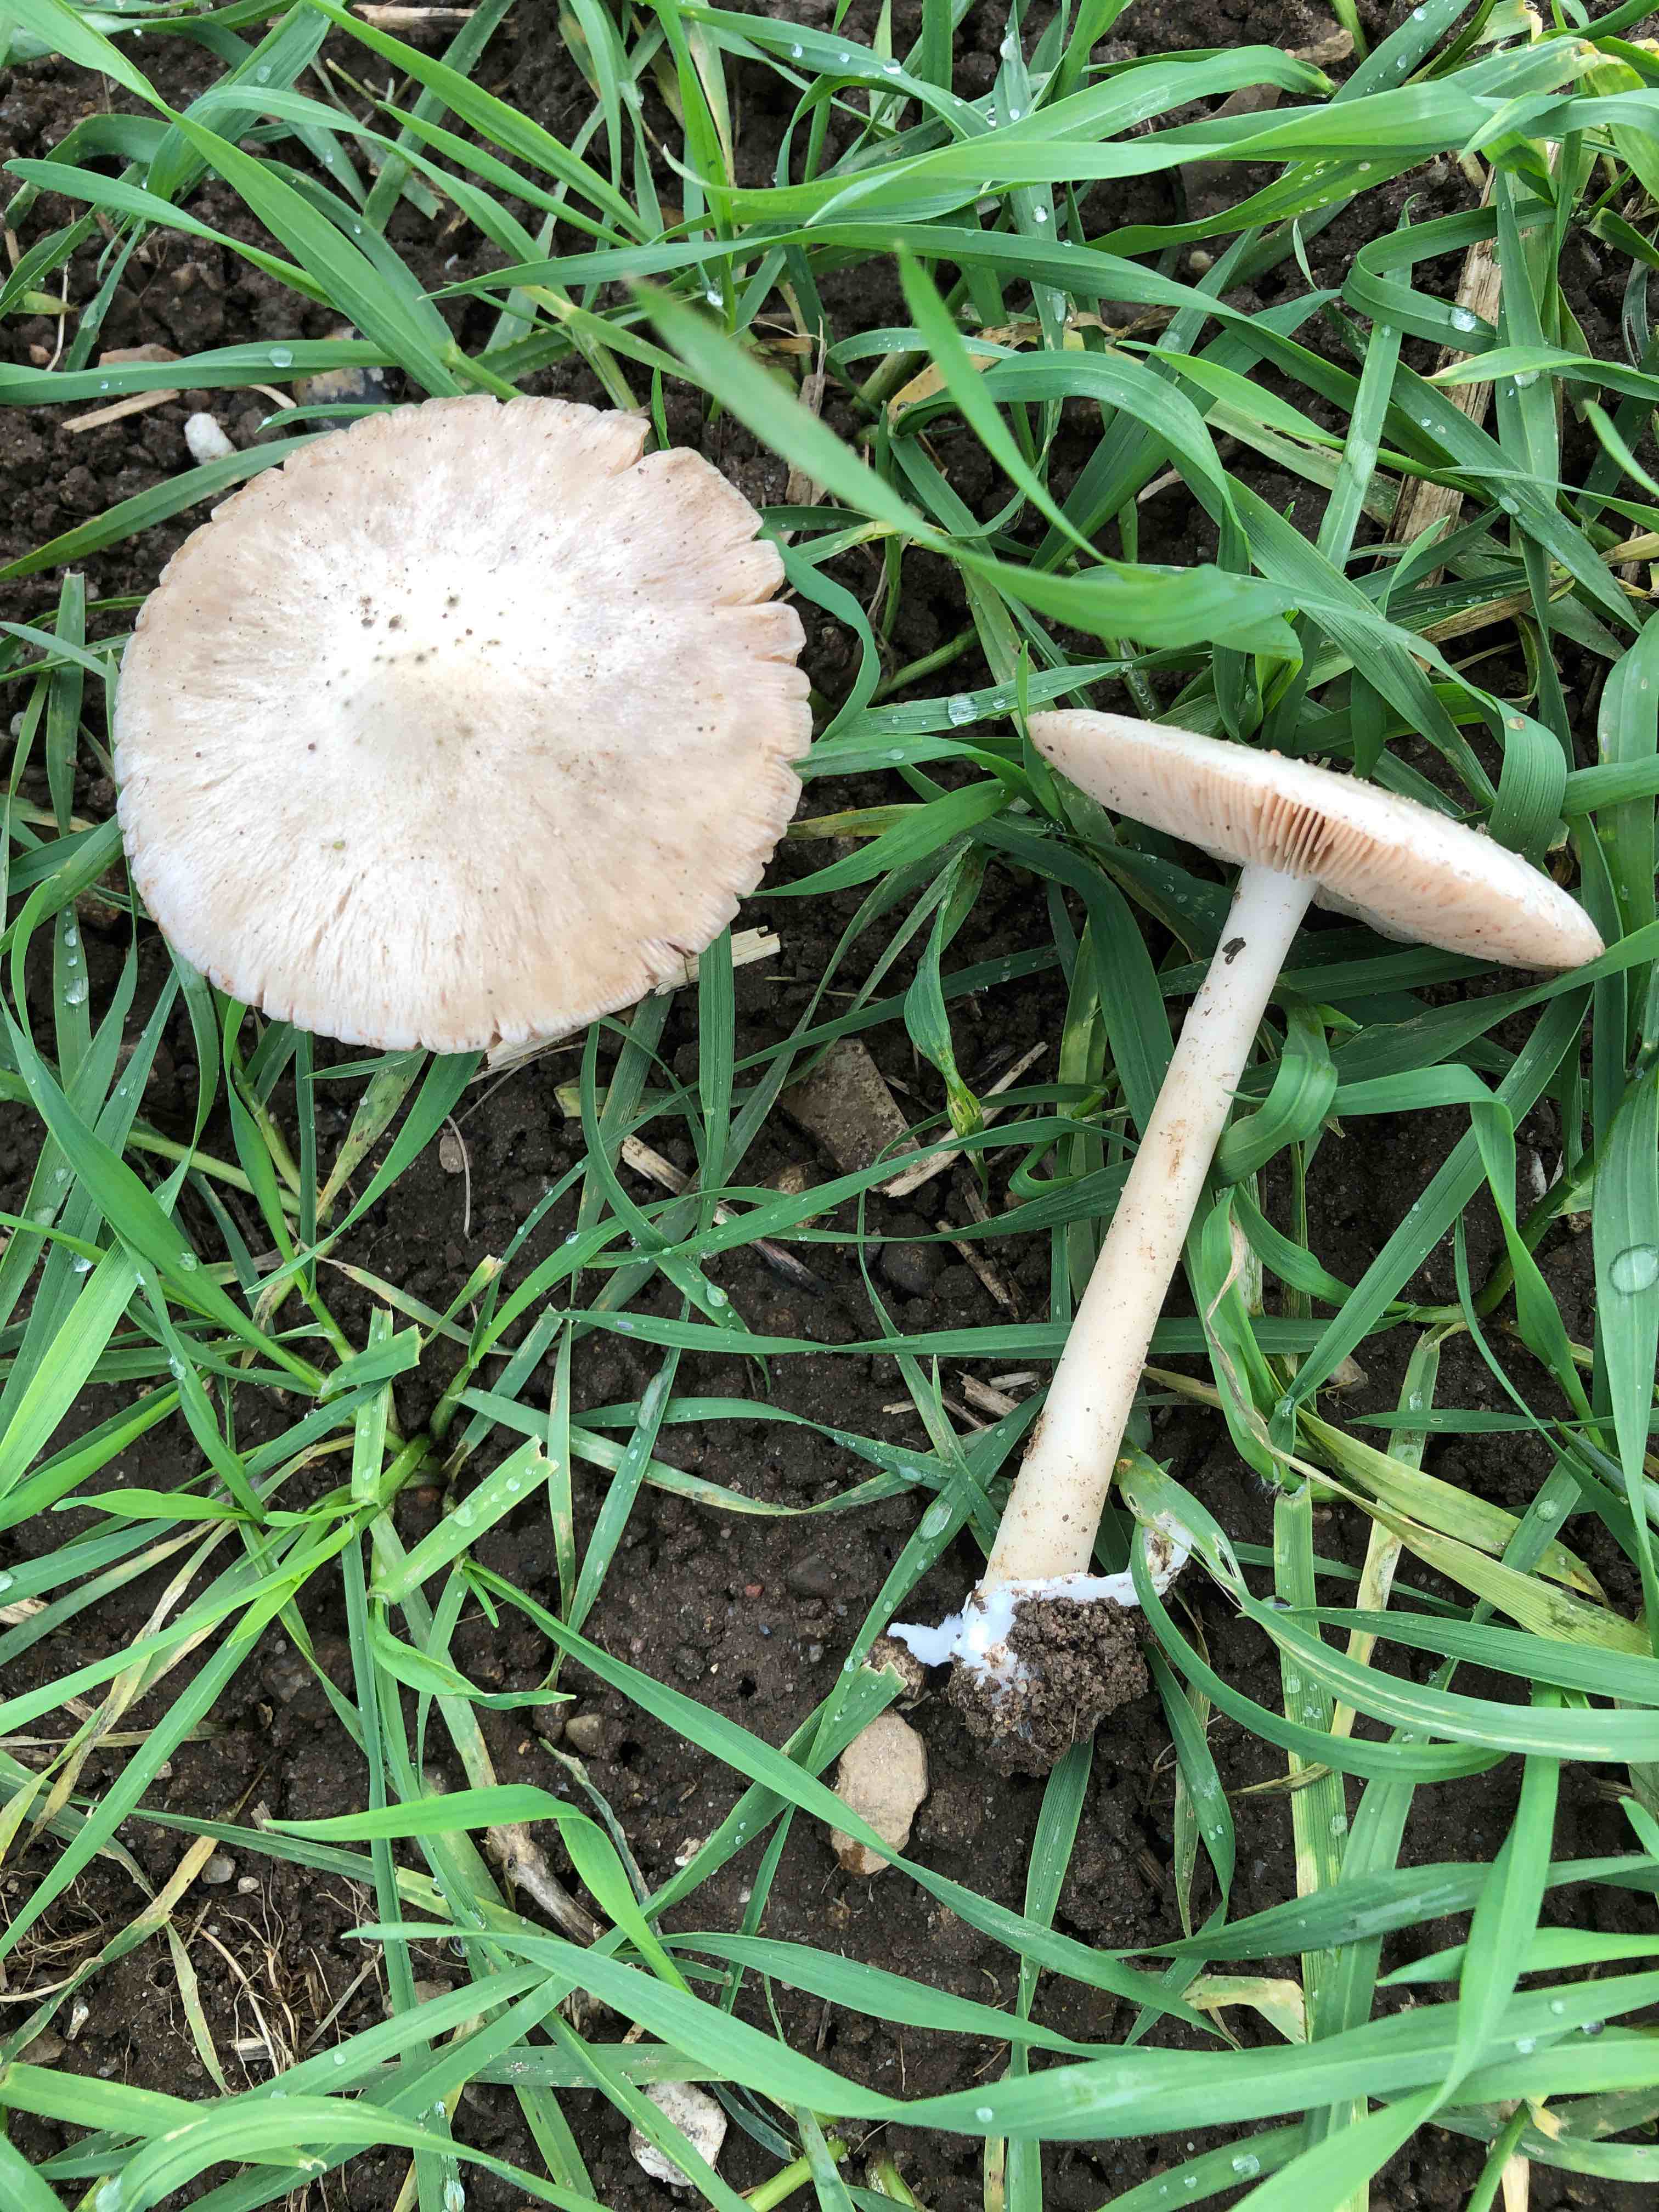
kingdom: Fungi
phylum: Basidiomycota
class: Agaricomycetes
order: Agaricales
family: Pluteaceae
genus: Volvopluteus
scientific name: Volvopluteus gloiocephalus
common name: høj posesvamp
